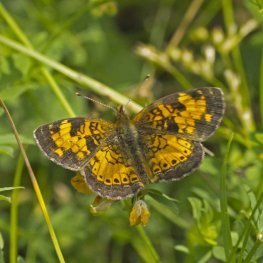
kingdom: Animalia
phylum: Arthropoda
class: Insecta
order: Lepidoptera
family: Nymphalidae
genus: Phyciodes
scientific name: Phyciodes tharos
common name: Northern Crescent
